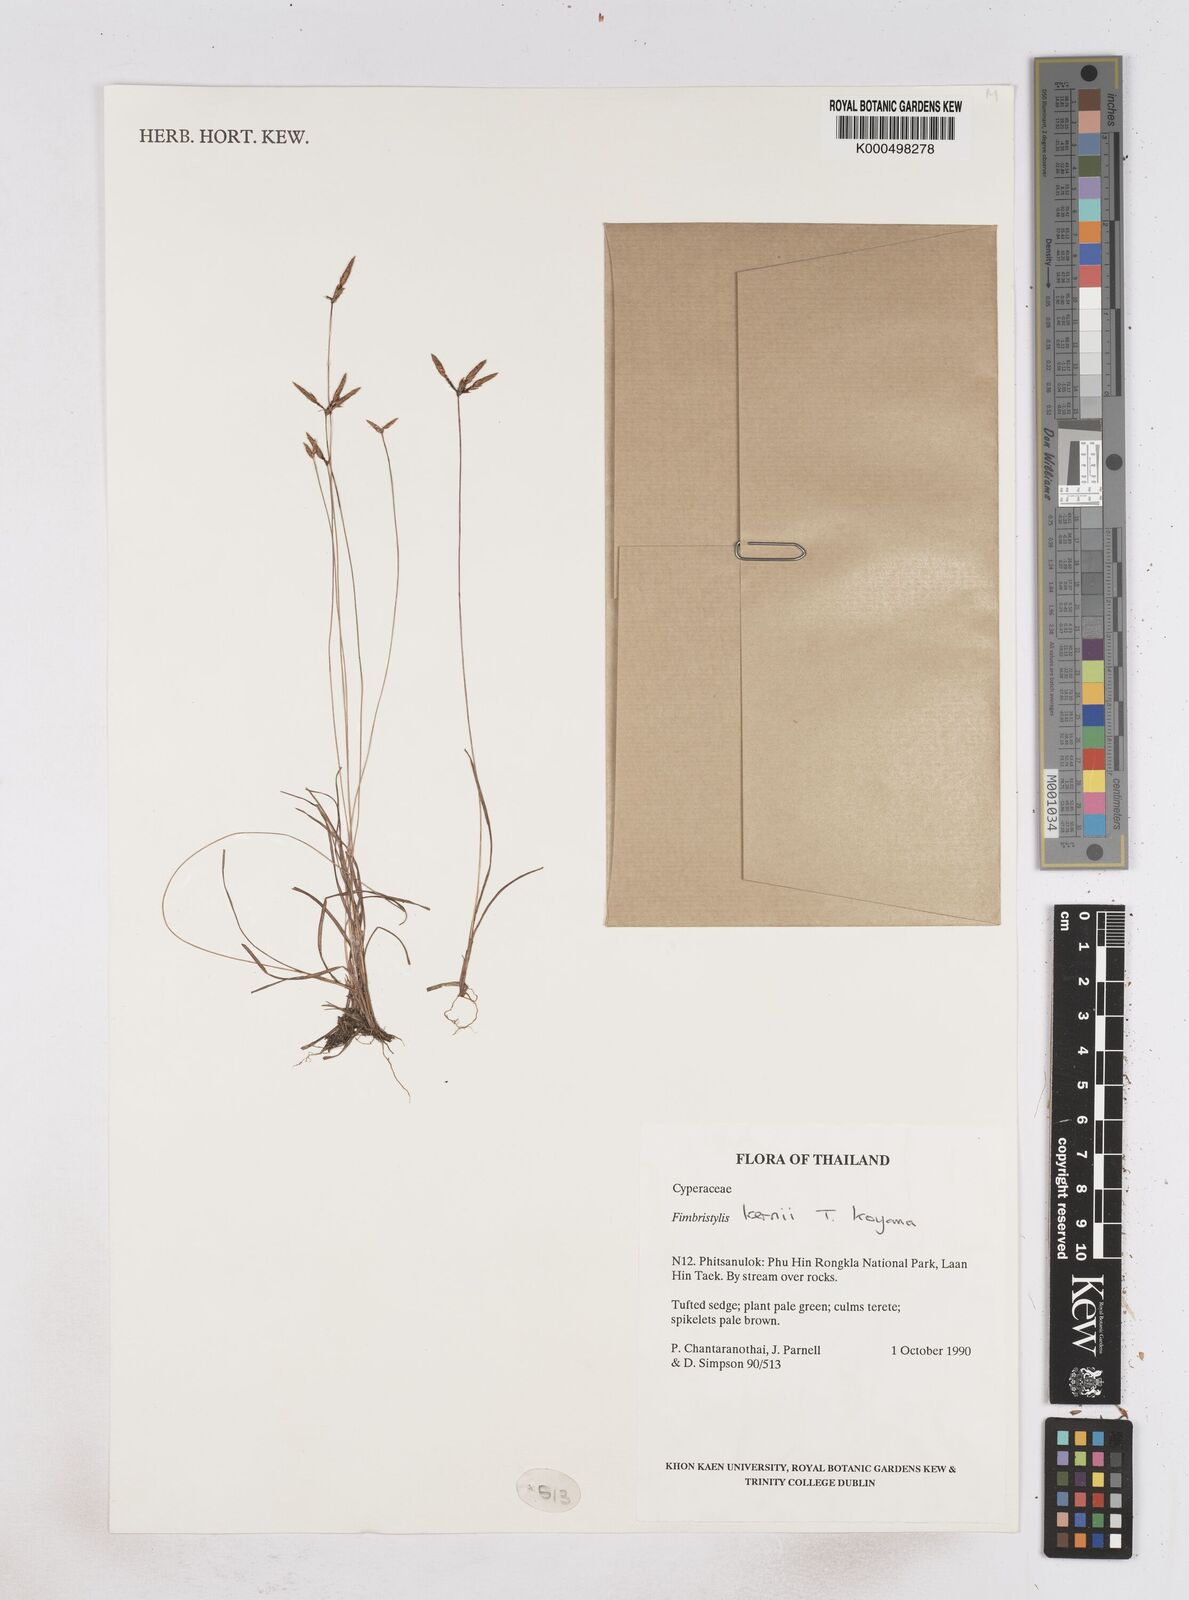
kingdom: Plantae
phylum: Tracheophyta
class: Liliopsida
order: Poales
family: Cyperaceae
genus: Fimbristylis
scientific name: Fimbristylis kernii
